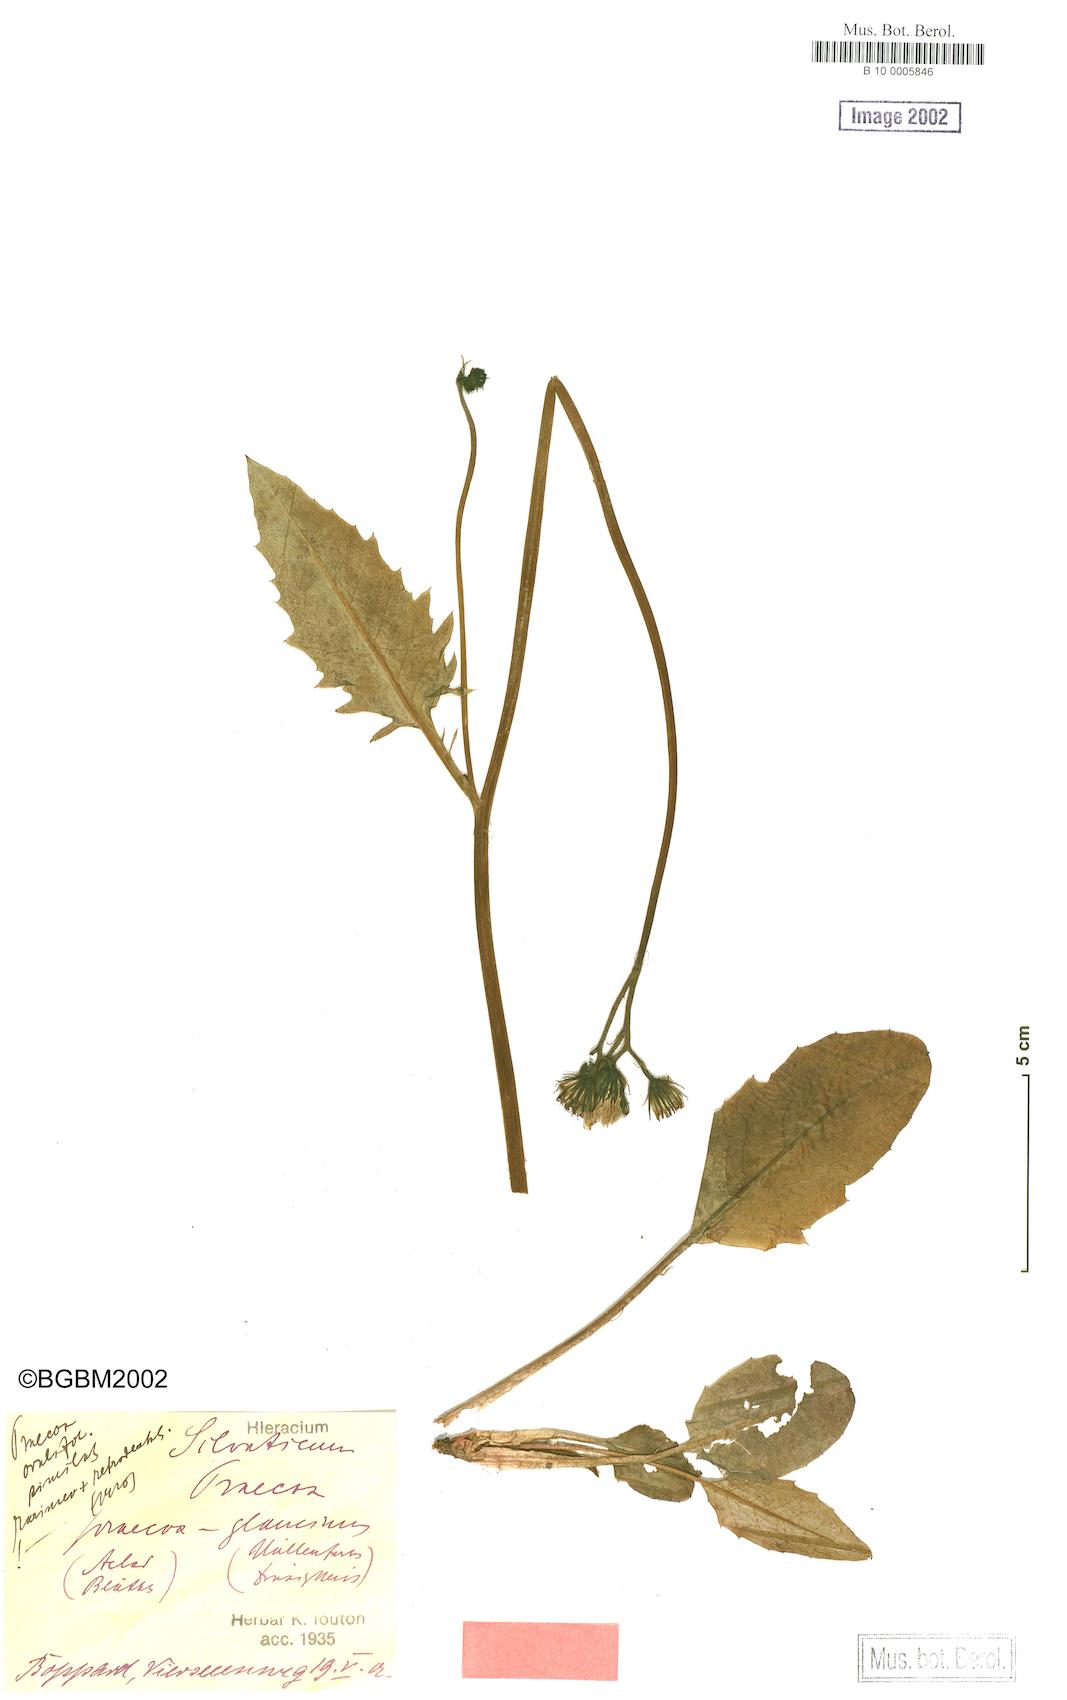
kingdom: Plantae
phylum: Tracheophyta
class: Magnoliopsida
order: Asterales
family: Asteraceae
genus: Hieracium
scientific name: Hieracium praecox
